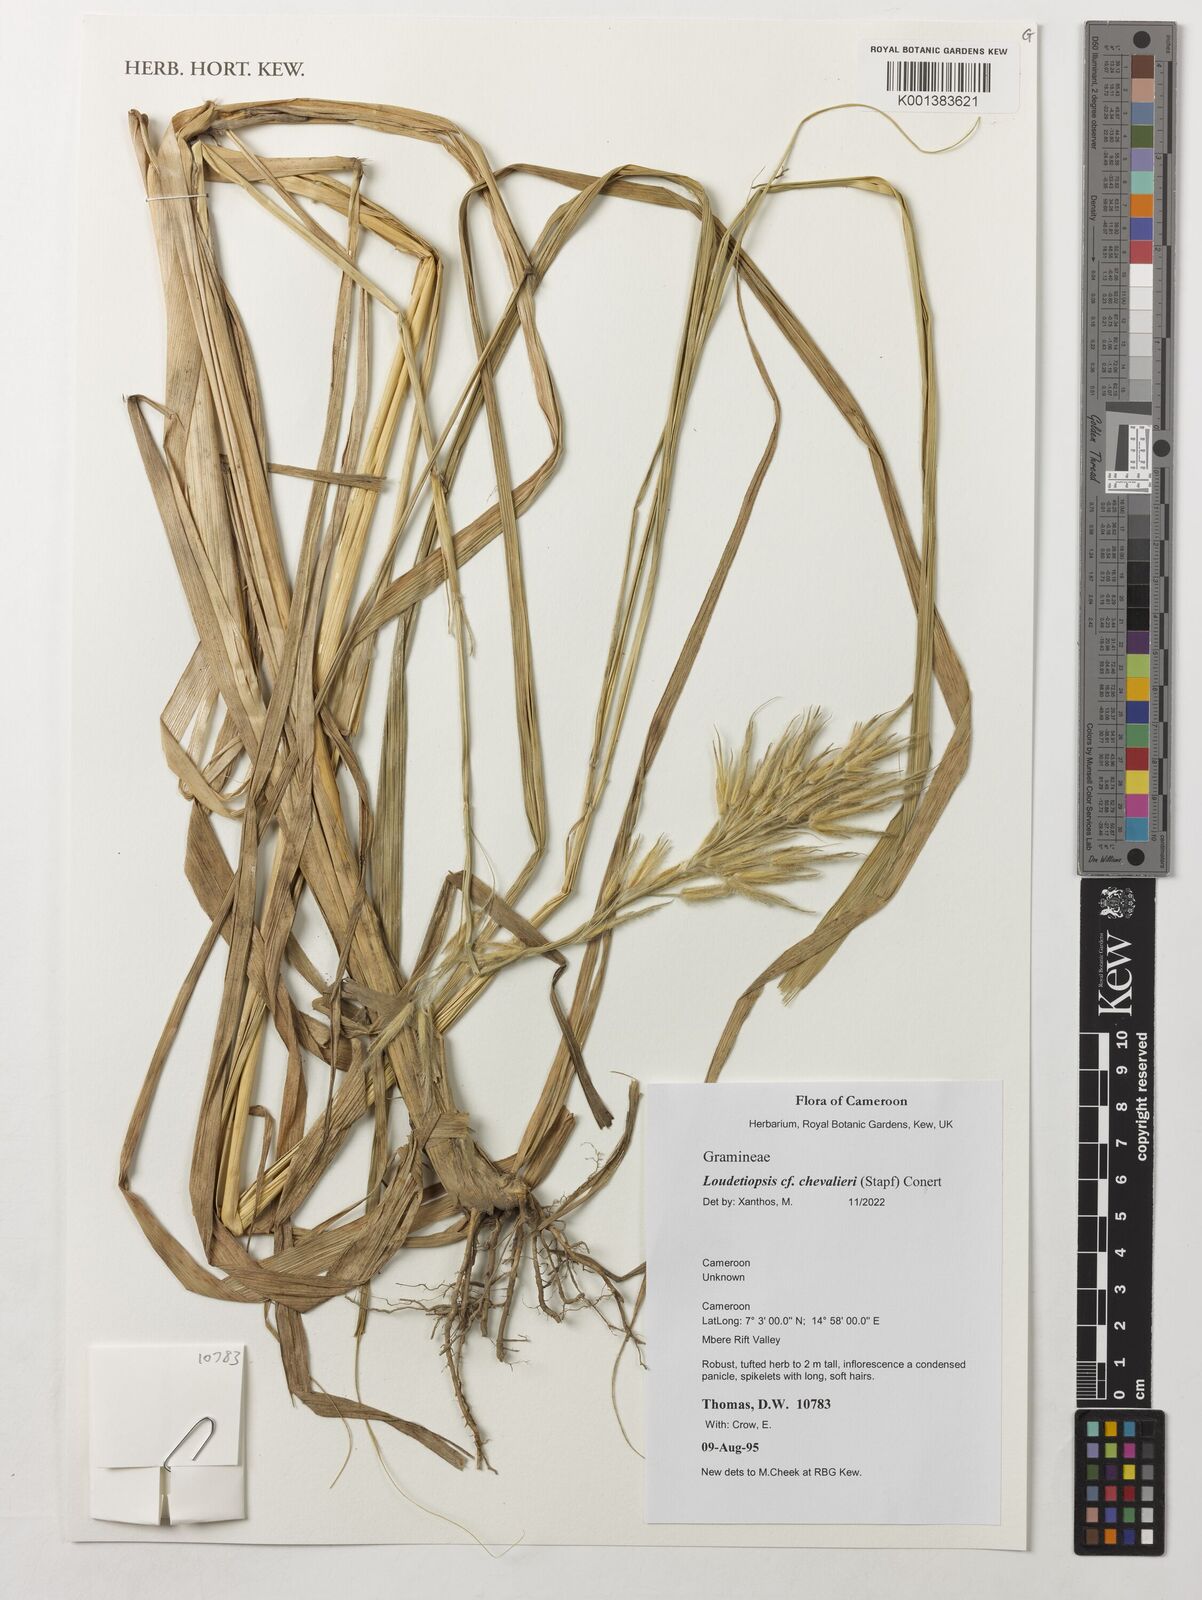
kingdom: Plantae
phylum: Tracheophyta
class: Liliopsida
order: Poales
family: Poaceae
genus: Loudetiopsis
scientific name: Loudetiopsis chevalieri
